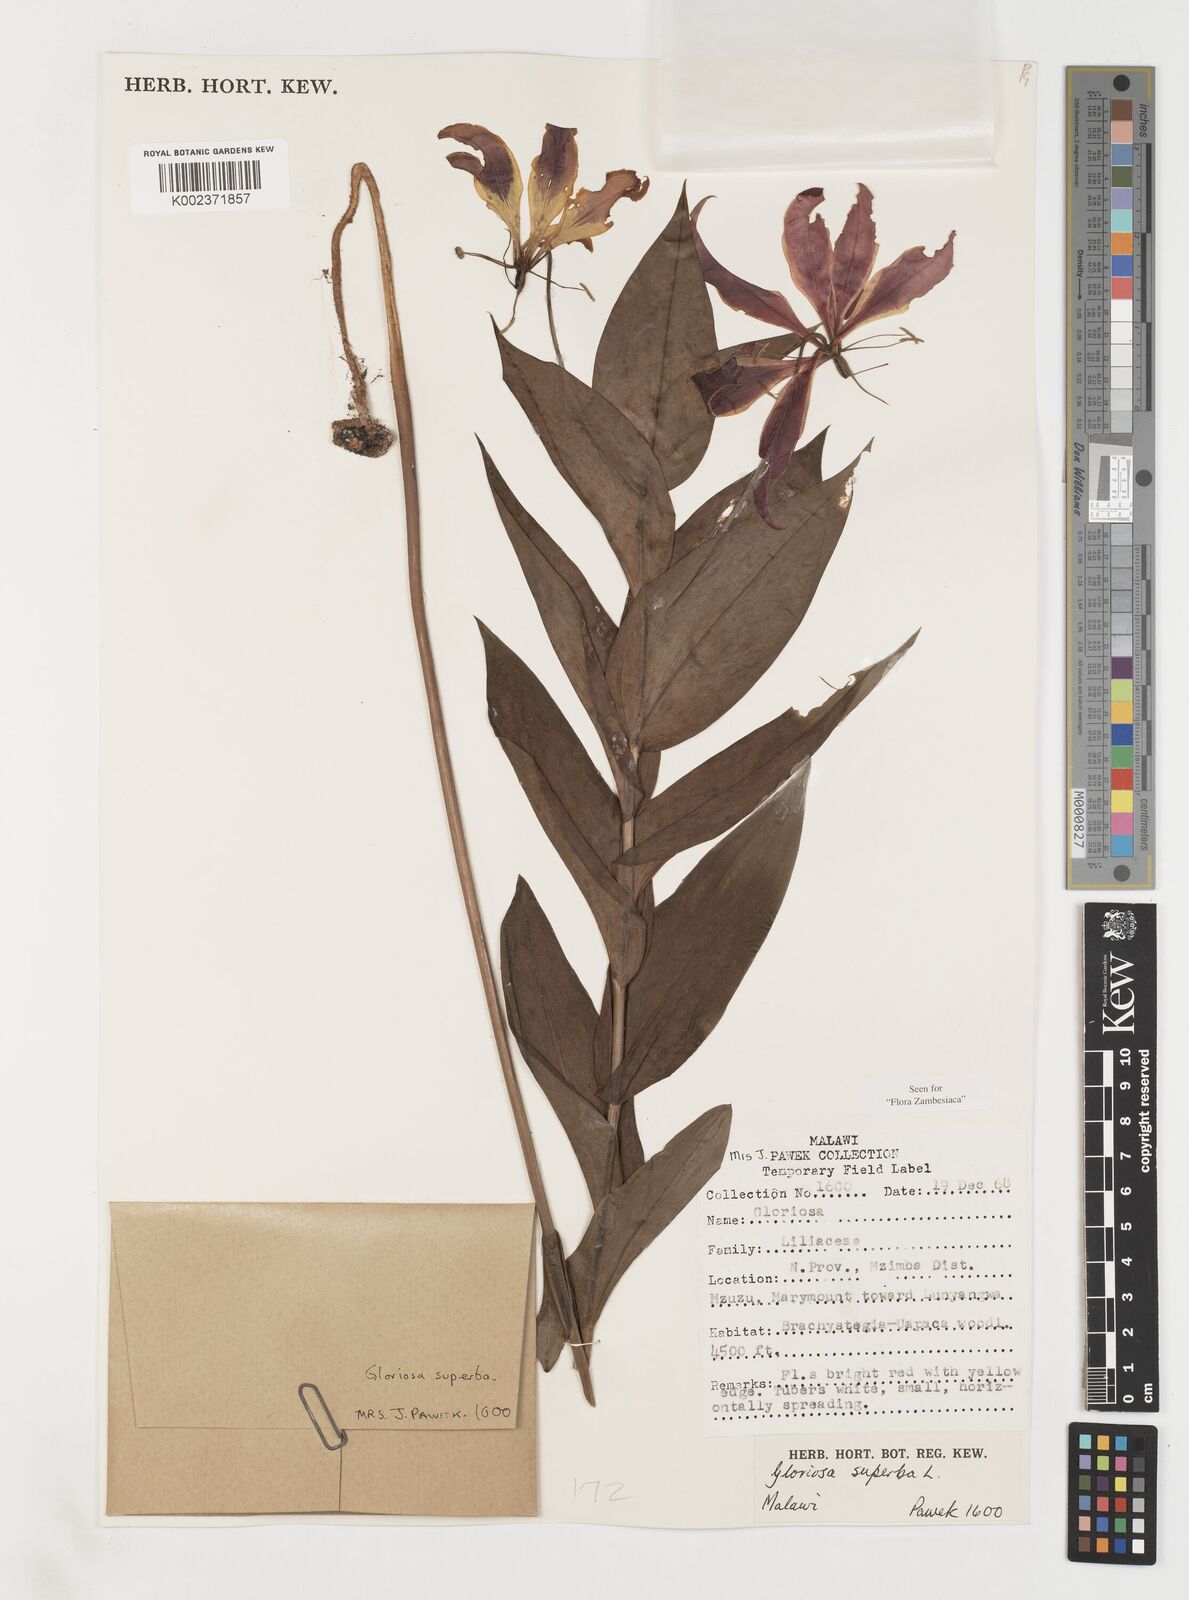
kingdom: Plantae
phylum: Tracheophyta
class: Liliopsida
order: Liliales
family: Colchicaceae
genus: Gloriosa
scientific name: Gloriosa simplex
